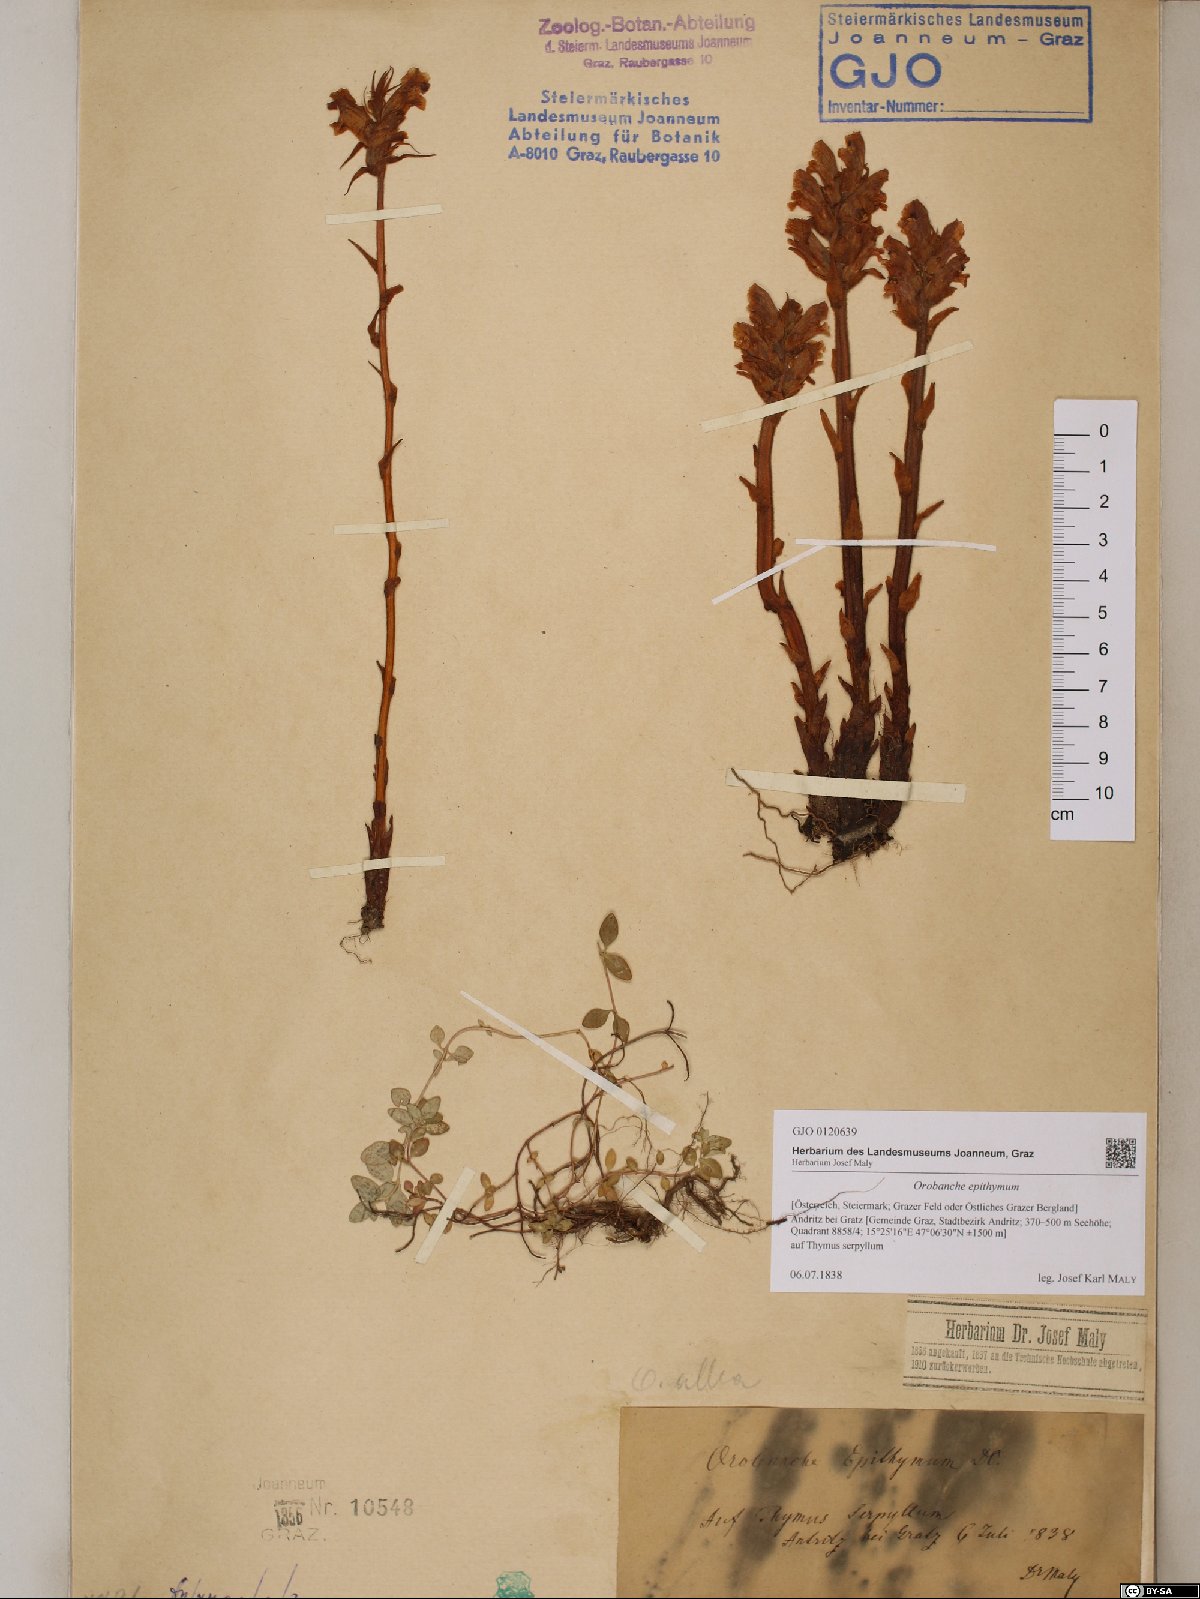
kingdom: Plantae
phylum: Tracheophyta
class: Magnoliopsida
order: Lamiales
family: Orobanchaceae
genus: Orobanche
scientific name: Orobanche alba
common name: Thyme broomrape
